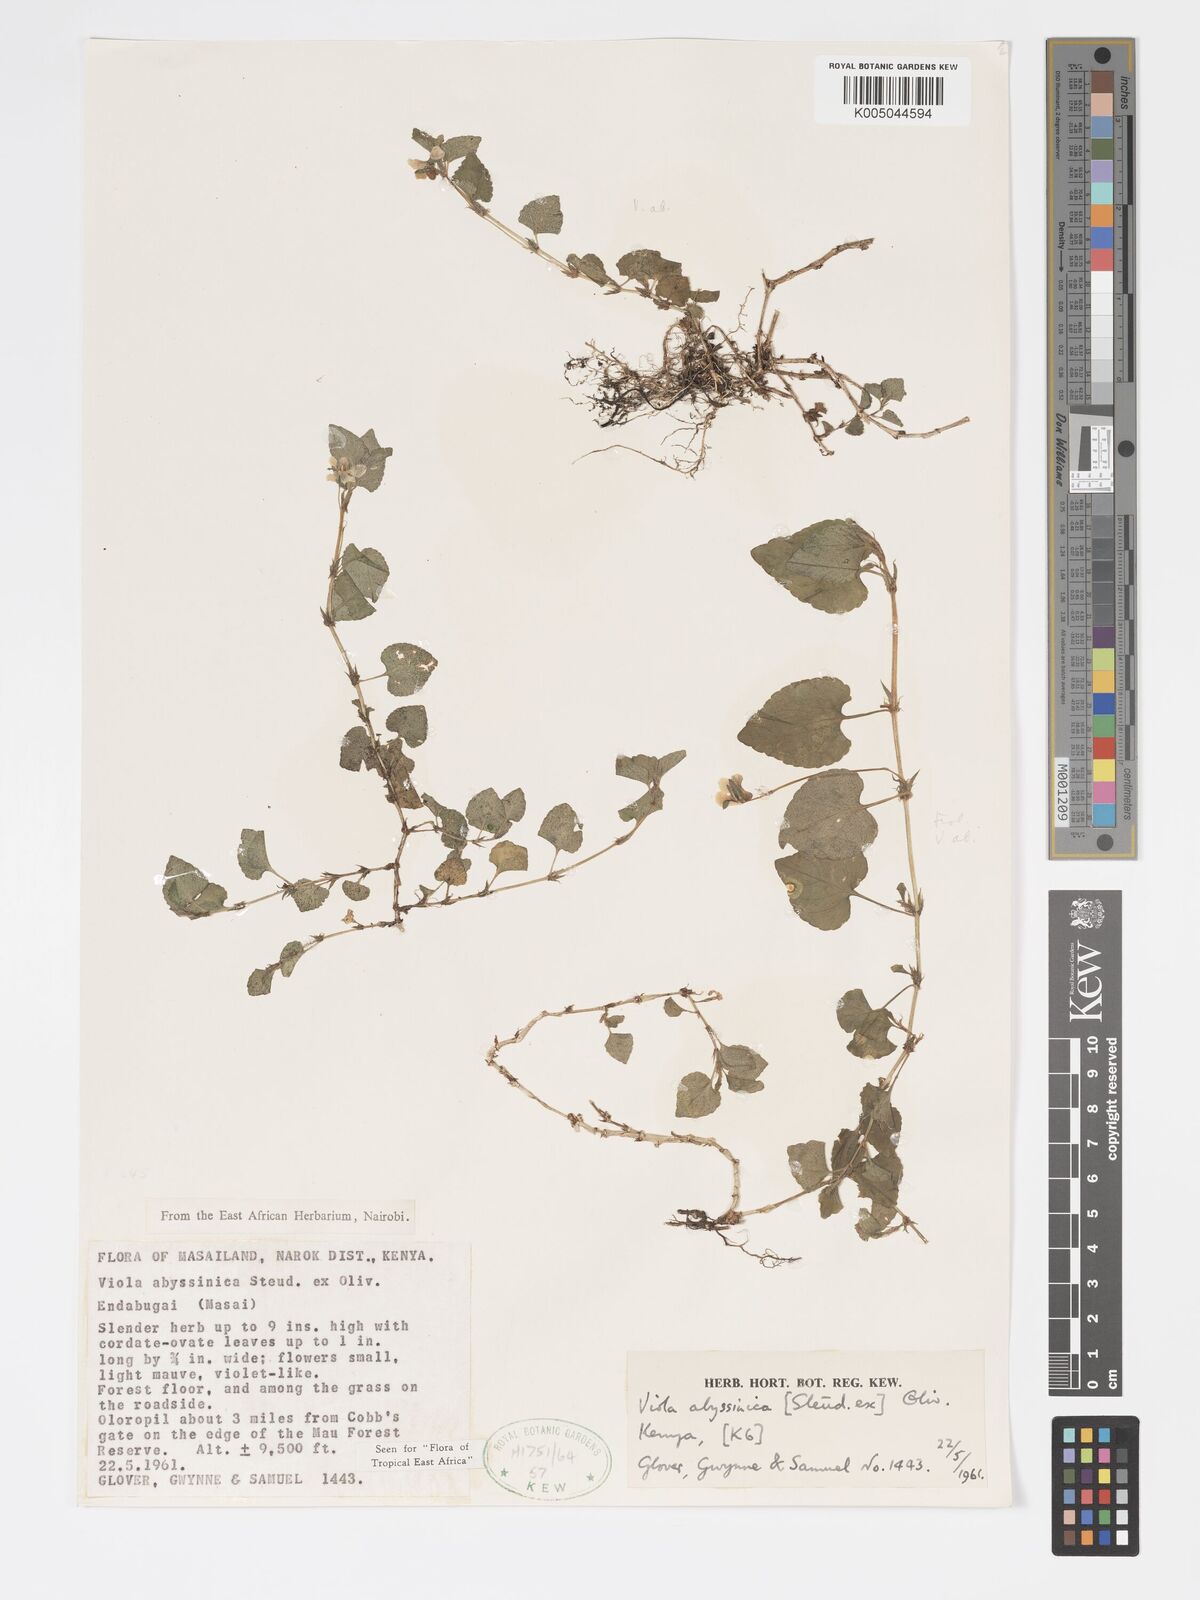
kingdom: Plantae
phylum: Tracheophyta
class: Magnoliopsida
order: Malpighiales
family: Violaceae
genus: Viola
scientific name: Viola abyssinica
